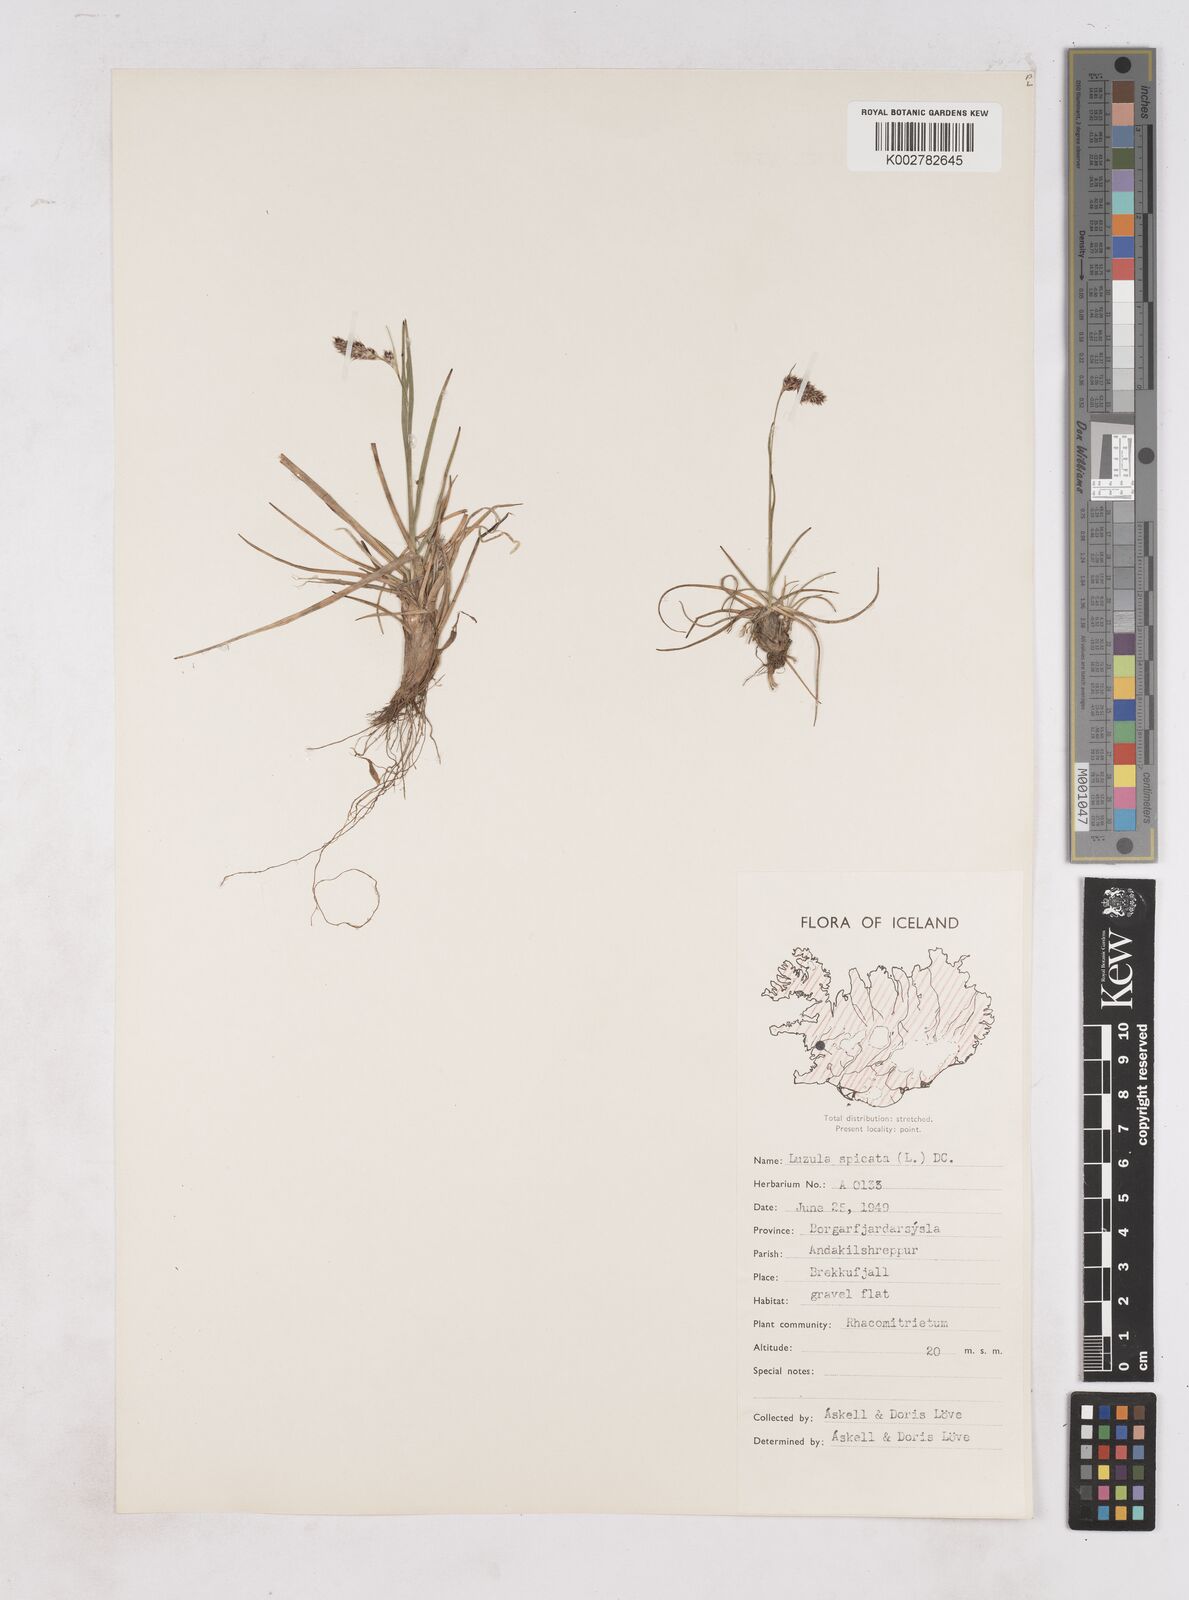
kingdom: Plantae
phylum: Tracheophyta
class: Liliopsida
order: Poales
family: Juncaceae
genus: Luzula
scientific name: Luzula spicata
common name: Spiked wood-rush
